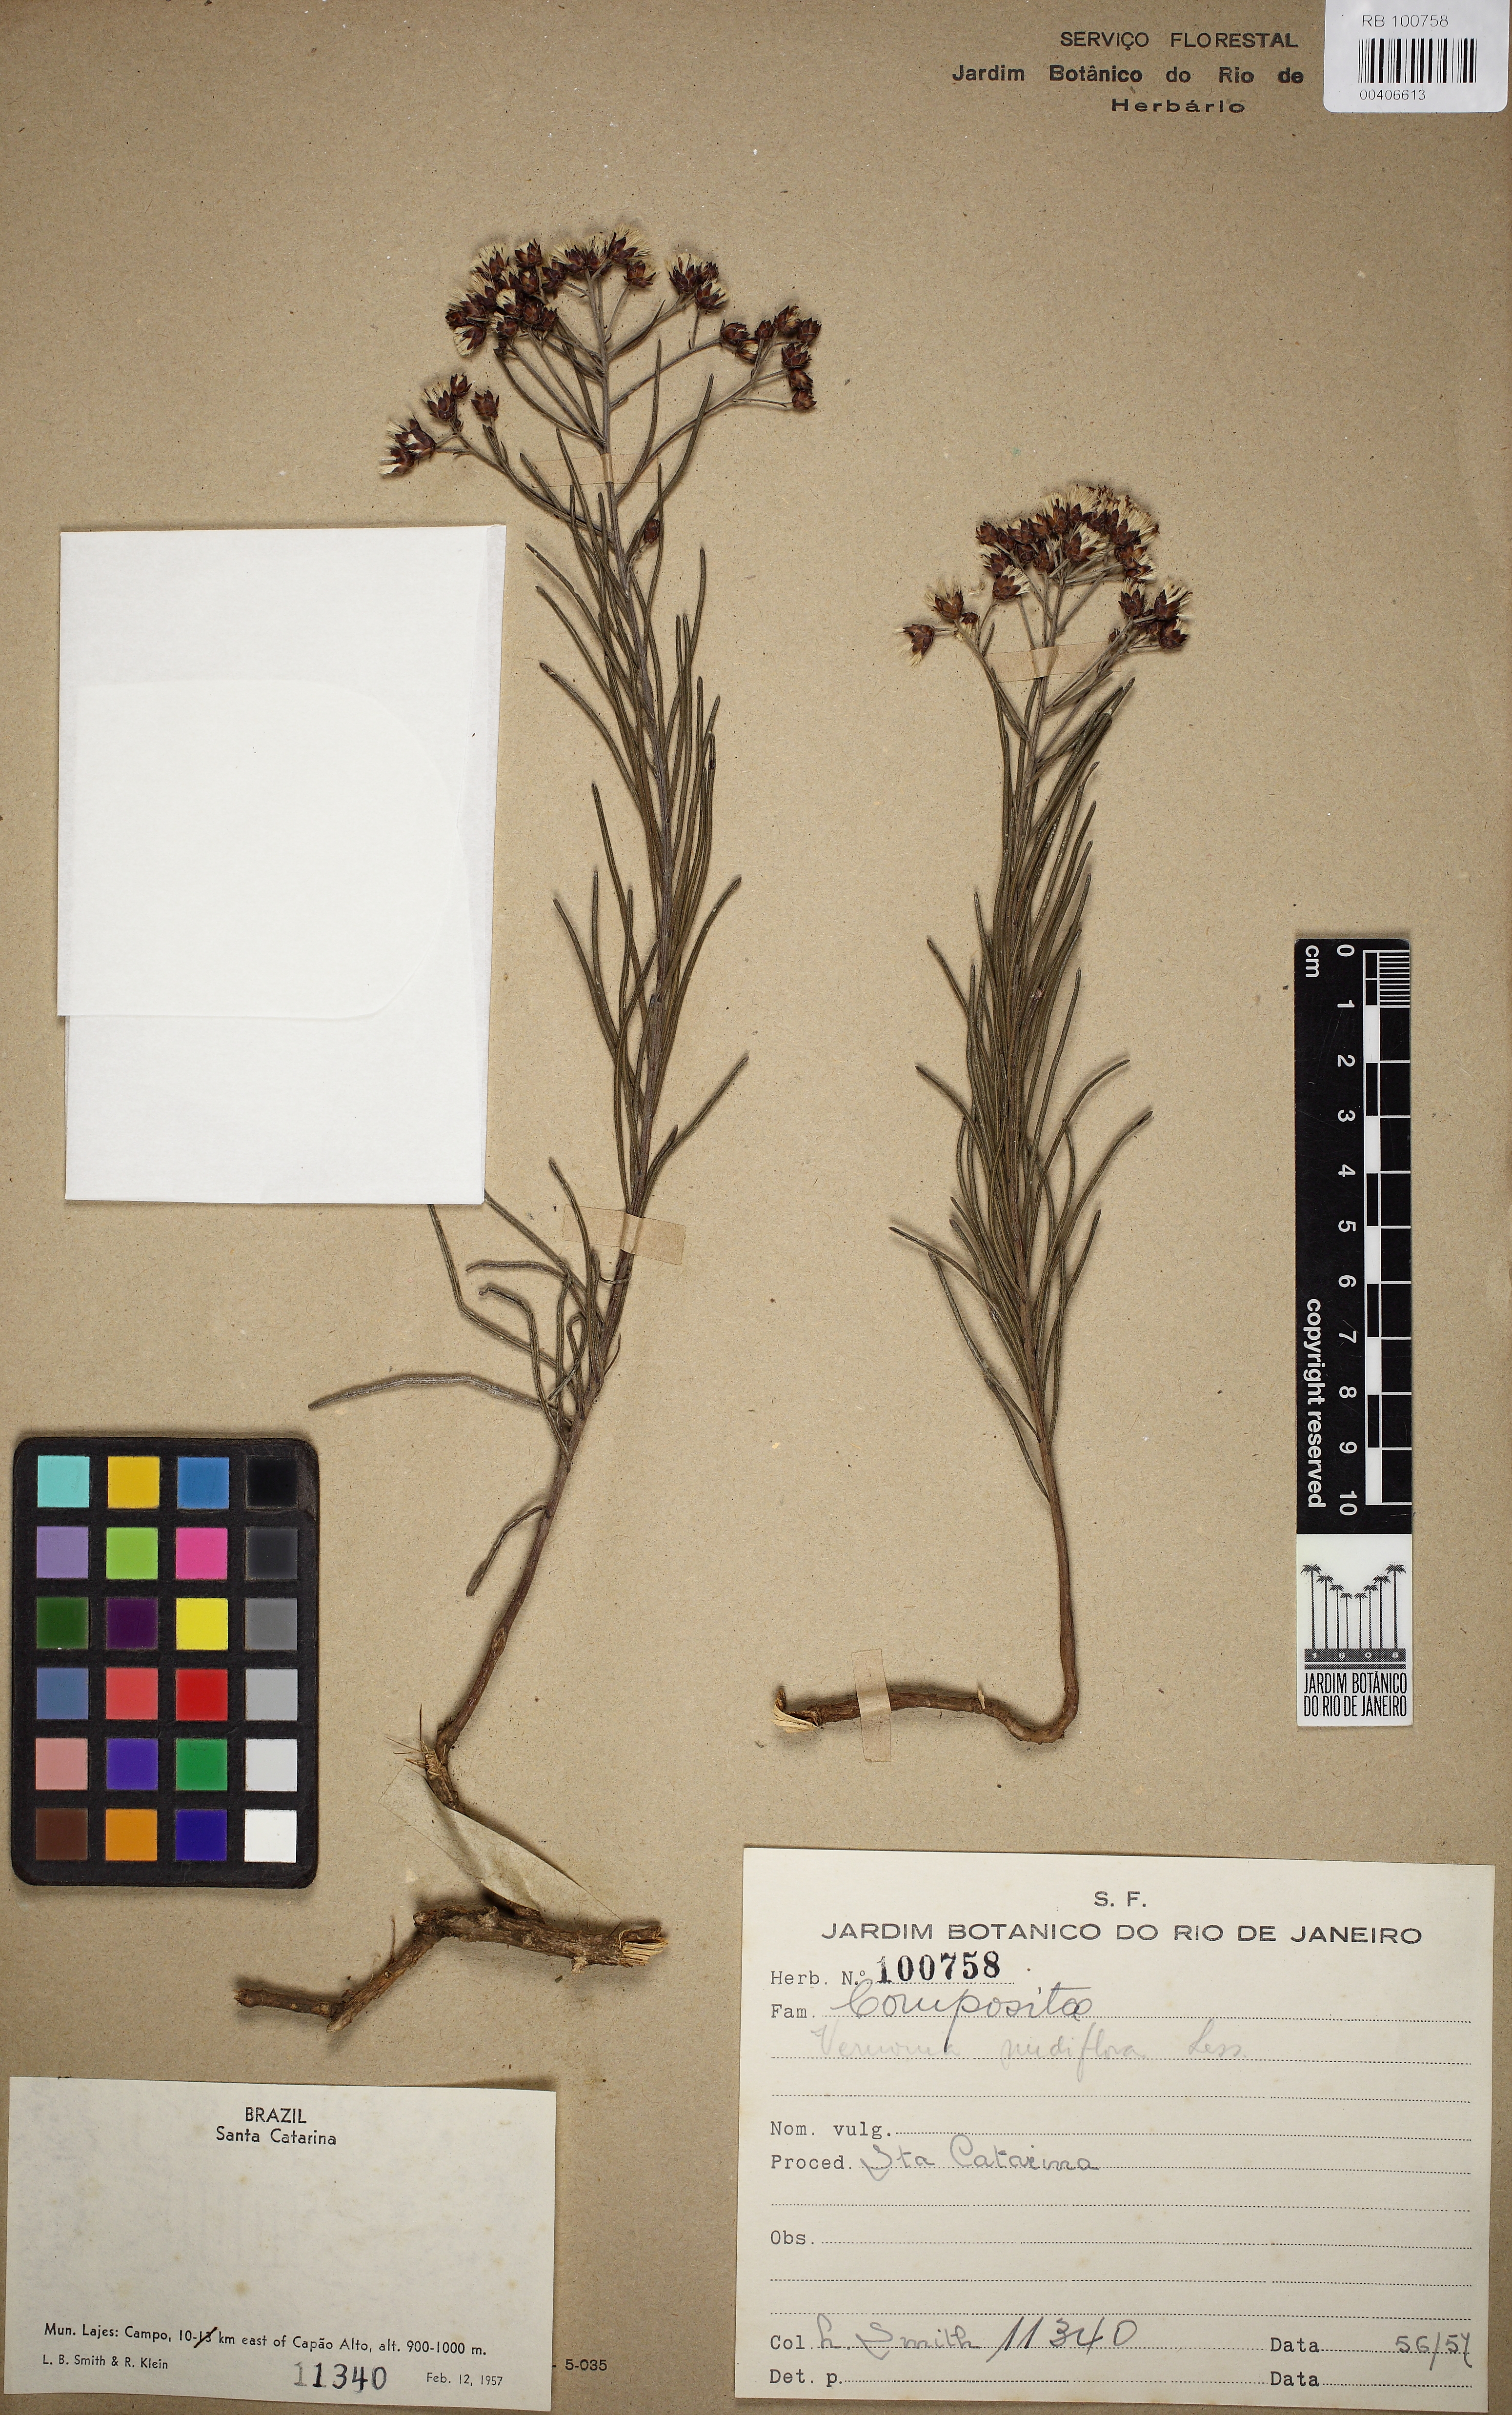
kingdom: Plantae
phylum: Tracheophyta
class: Magnoliopsida
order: Asterales
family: Asteraceae
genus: Vernonanthura
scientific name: Vernonanthura nudiflora
